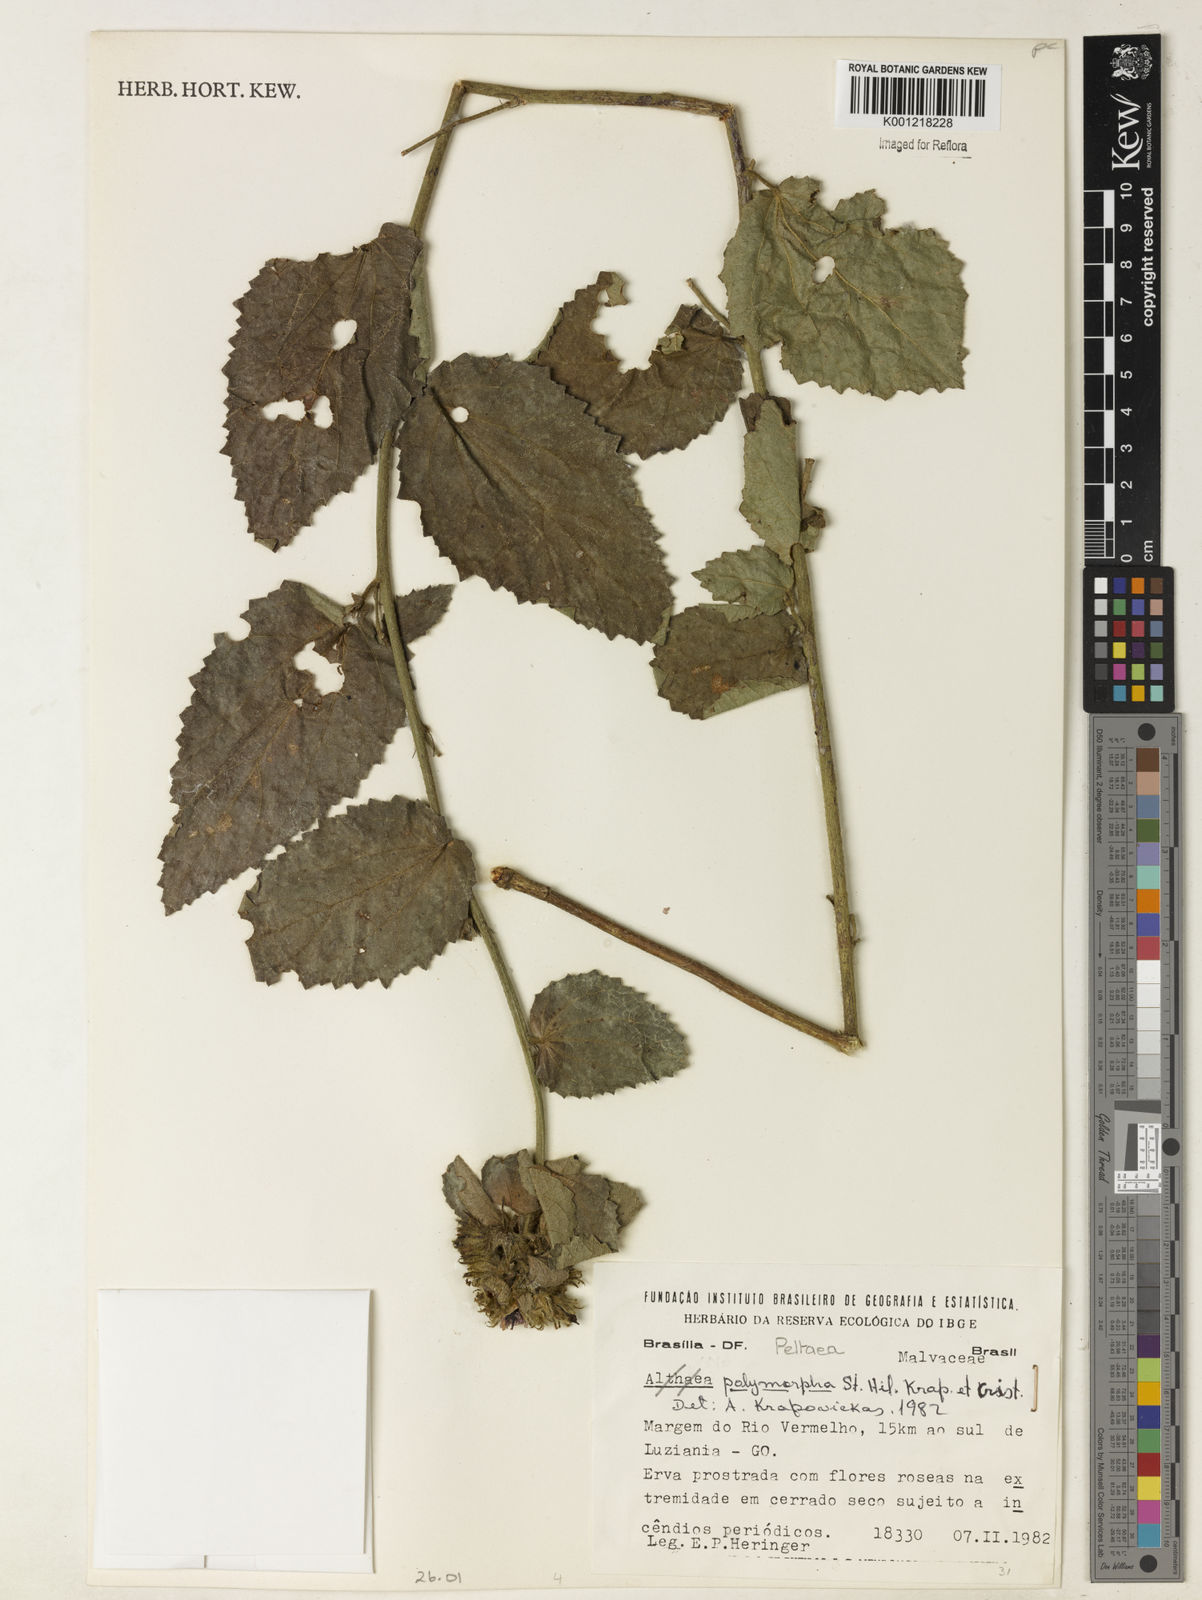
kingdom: Plantae
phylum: Tracheophyta
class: Magnoliopsida
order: Malvales
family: Malvaceae
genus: Peltaea
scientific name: Peltaea
